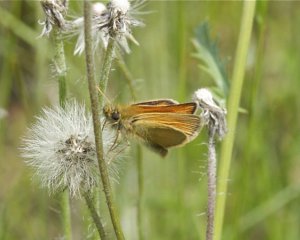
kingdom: Animalia
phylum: Arthropoda
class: Insecta
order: Lepidoptera
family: Hesperiidae
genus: Thymelicus
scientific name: Thymelicus lineola
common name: European Skipper
